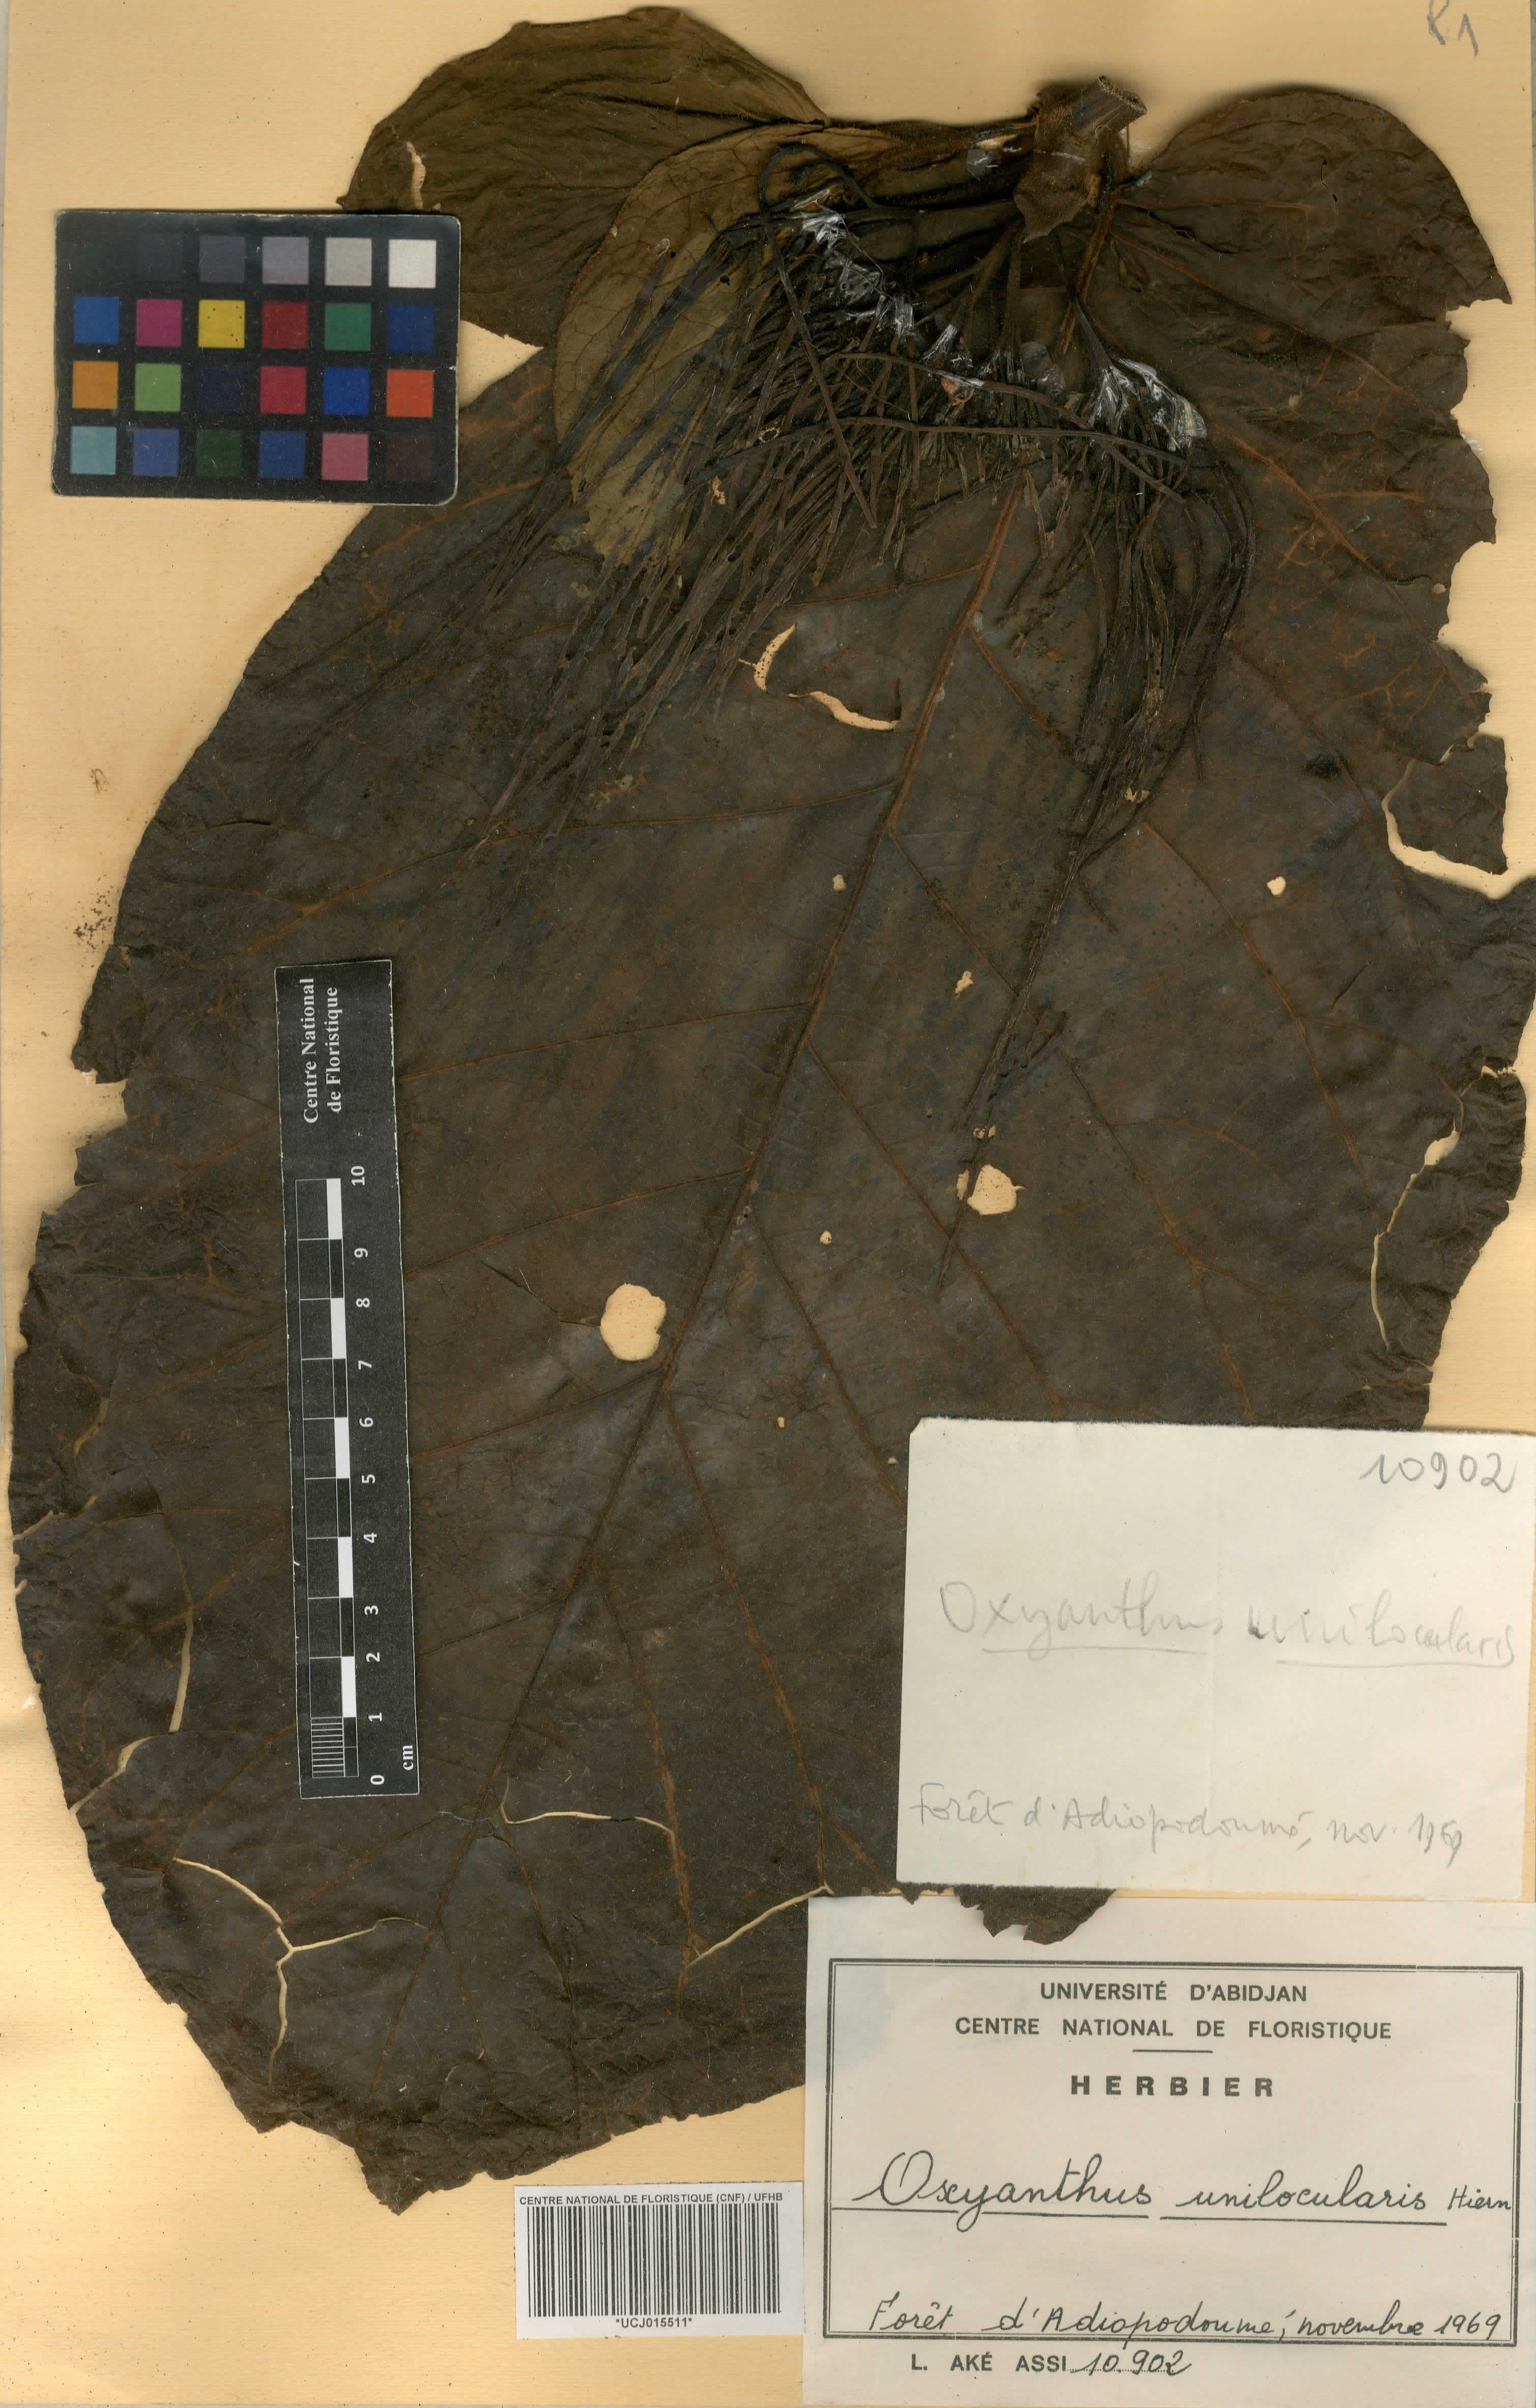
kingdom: Plantae
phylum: Tracheophyta
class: Magnoliopsida
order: Gentianales
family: Rubiaceae
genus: Oxyanthus
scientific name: Oxyanthus unilocularis
